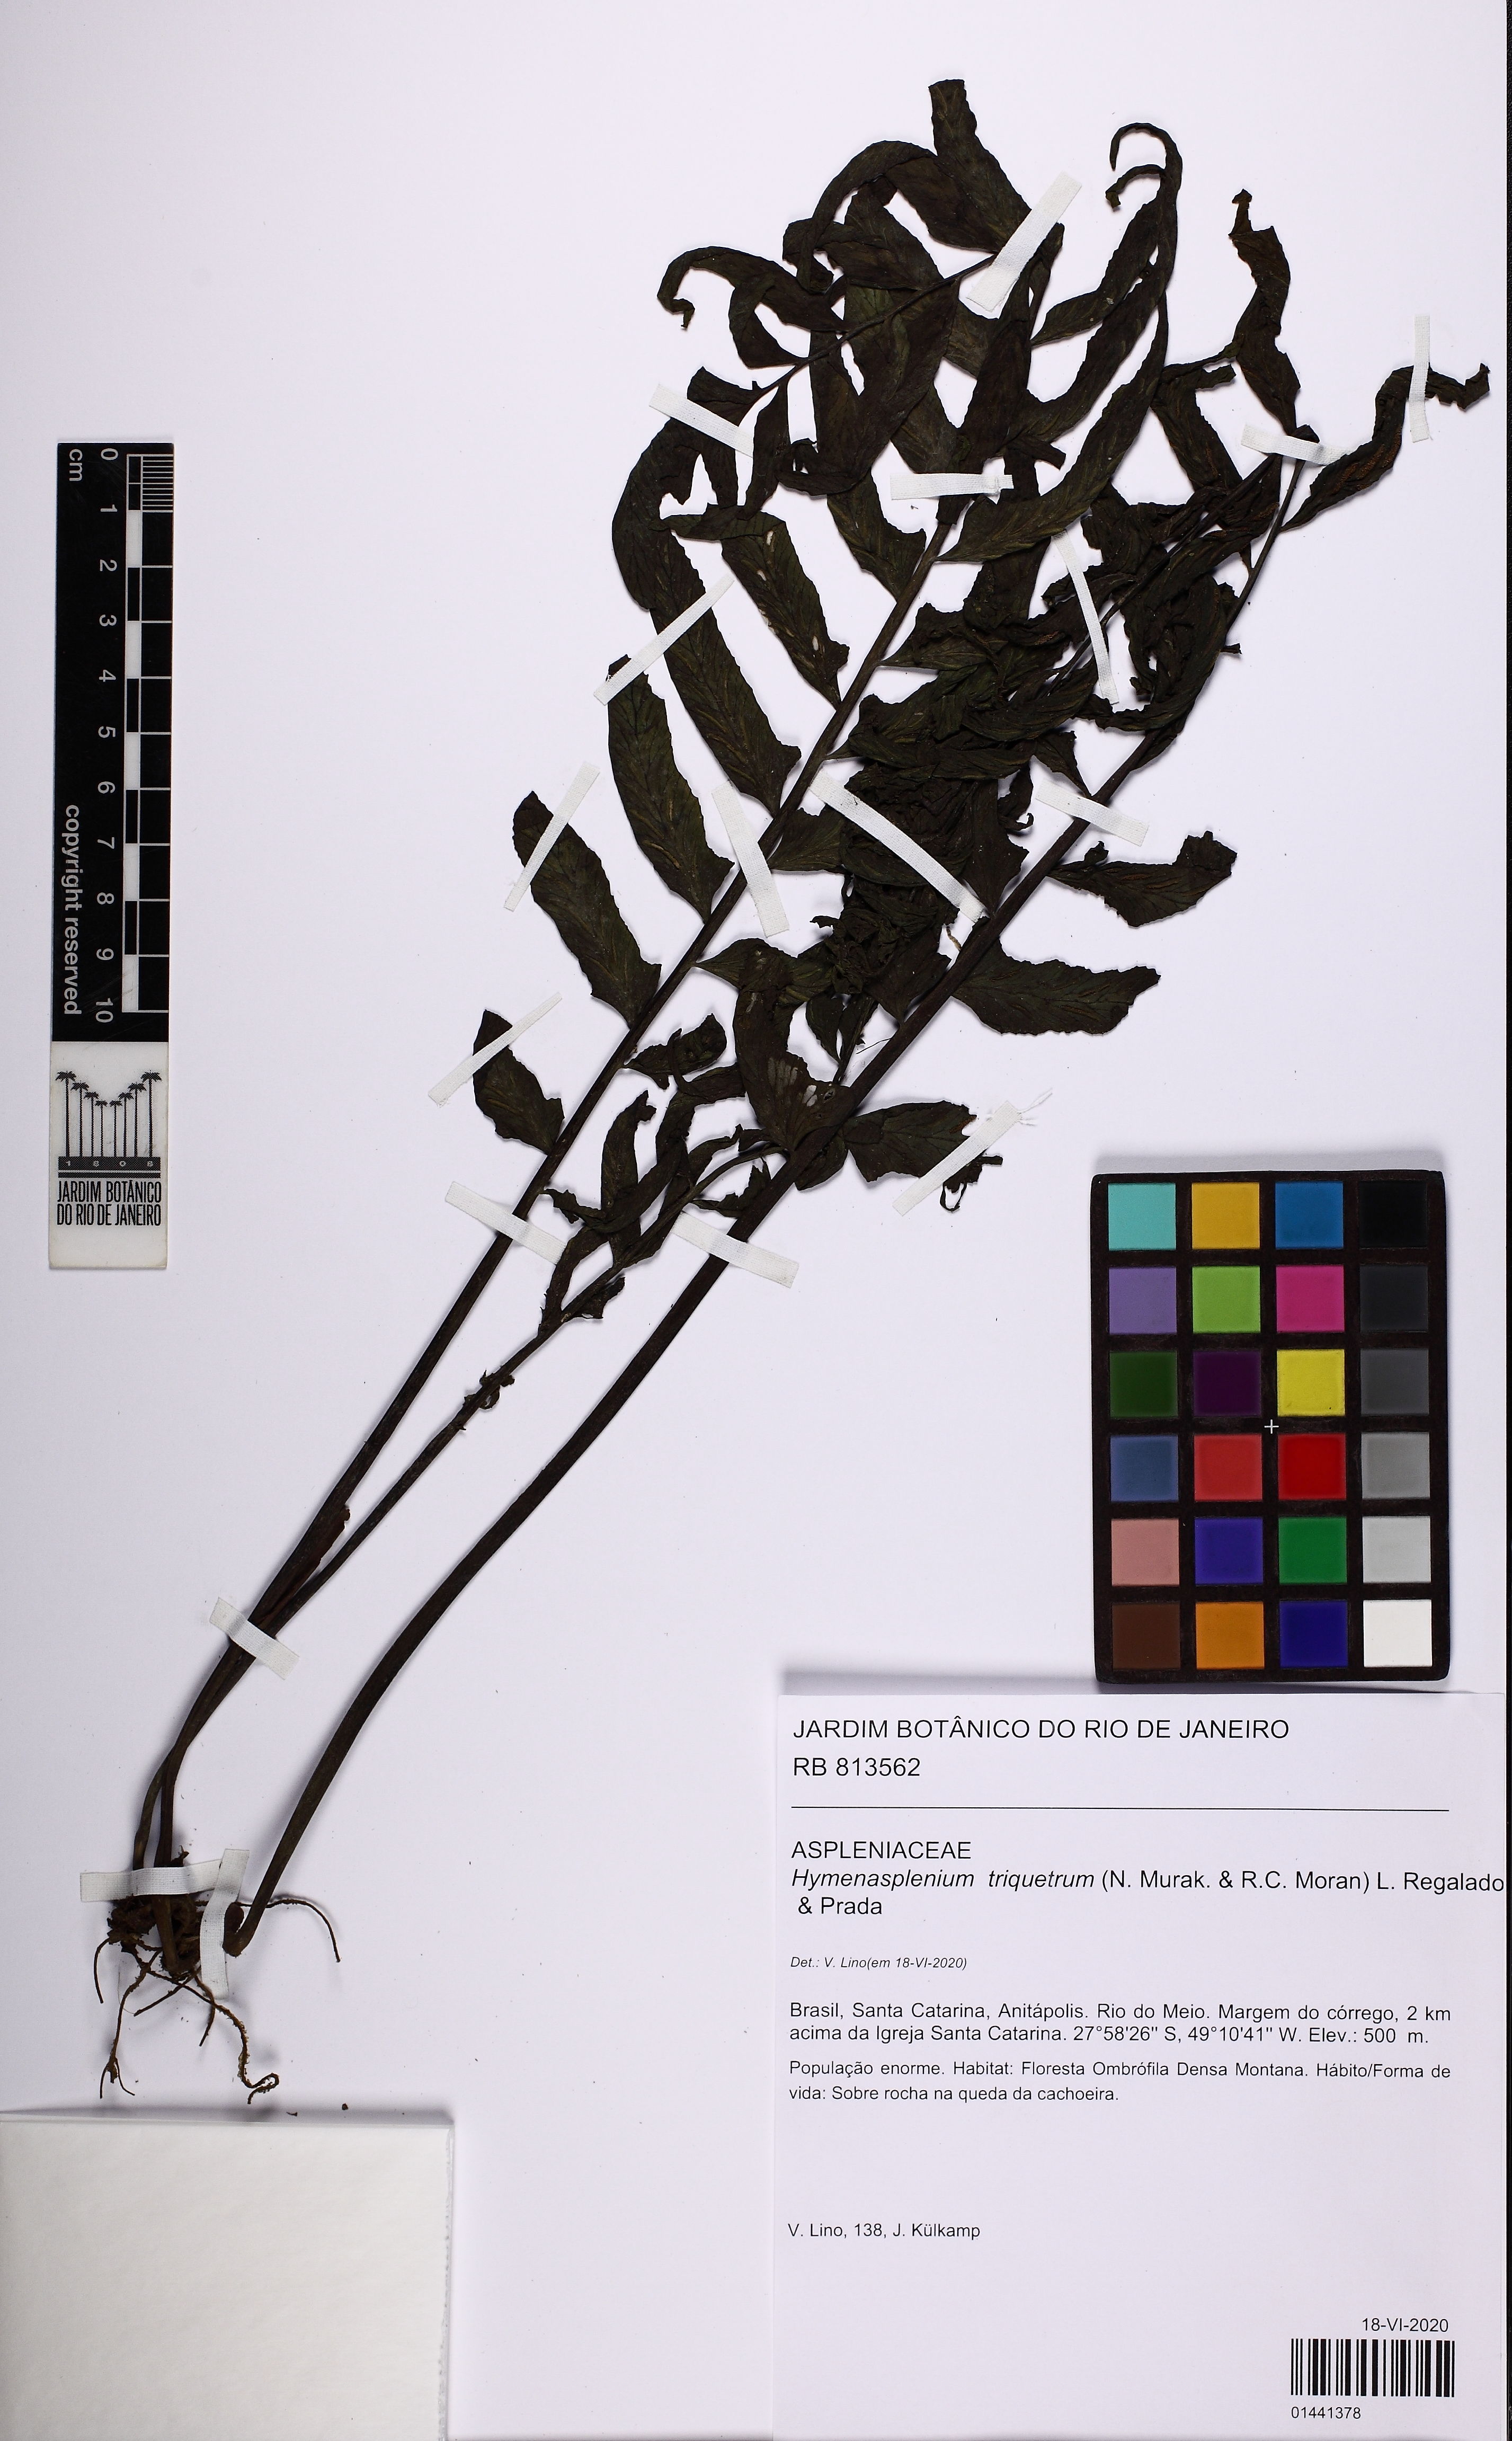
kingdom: Plantae
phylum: Tracheophyta
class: Polypodiopsida
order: Polypodiales
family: Aspleniaceae
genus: Hymenasplenium
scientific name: Hymenasplenium triquetrum
